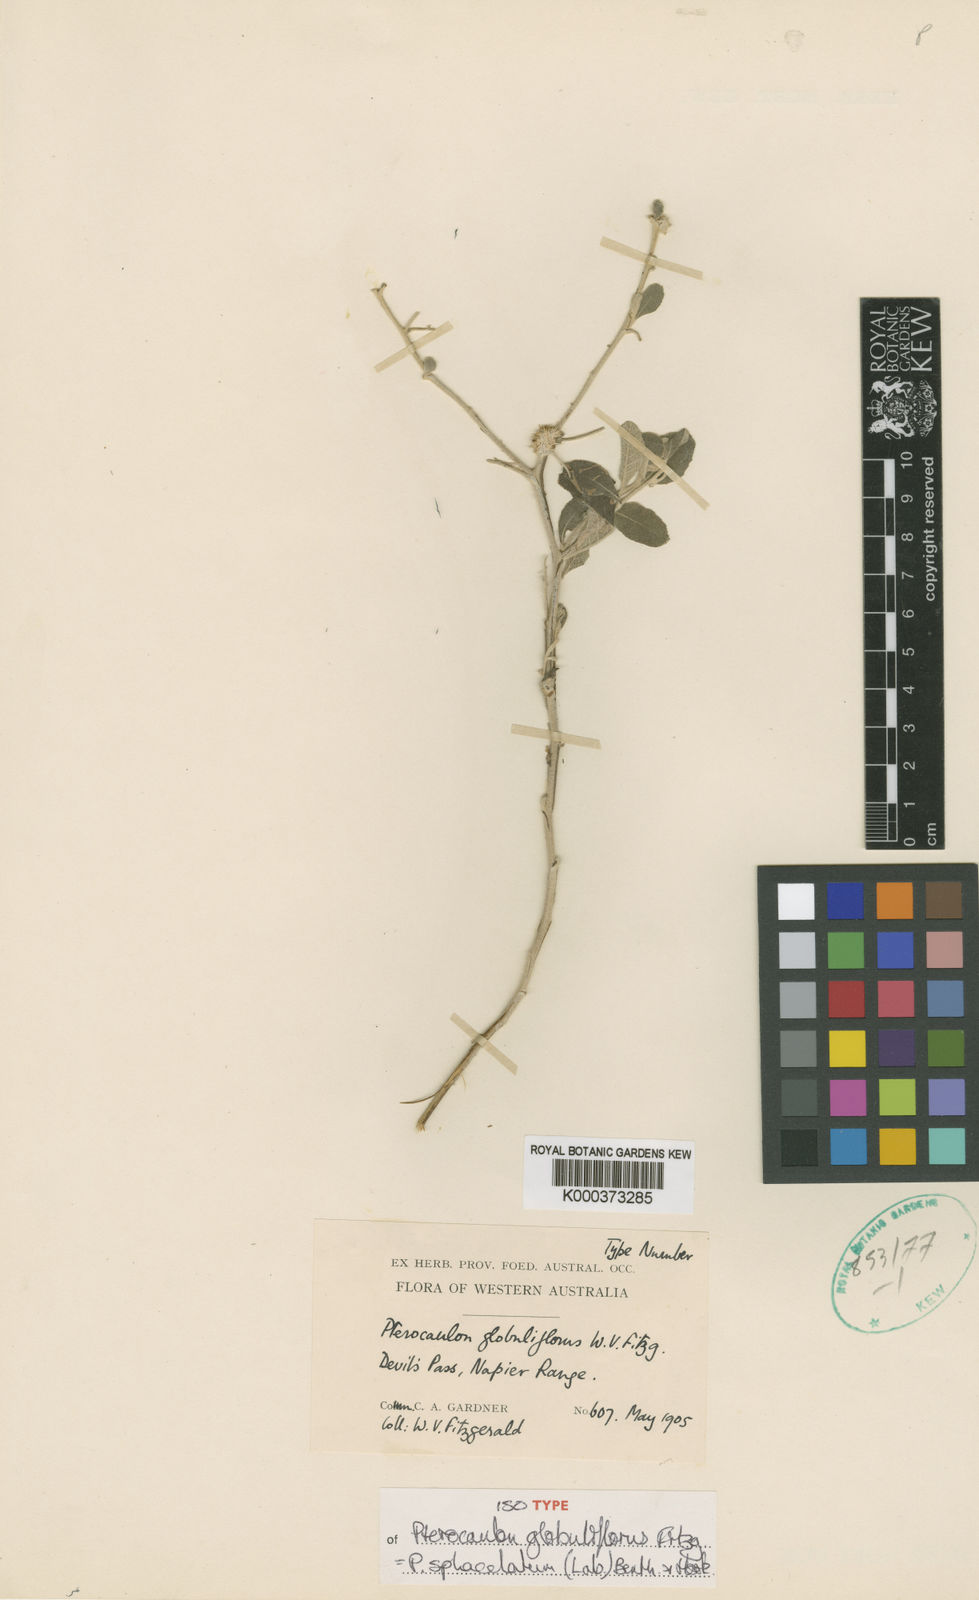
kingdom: Plantae
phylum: Tracheophyta
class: Magnoliopsida
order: Asterales
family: Asteraceae
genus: Pterocaulon
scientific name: Pterocaulon
